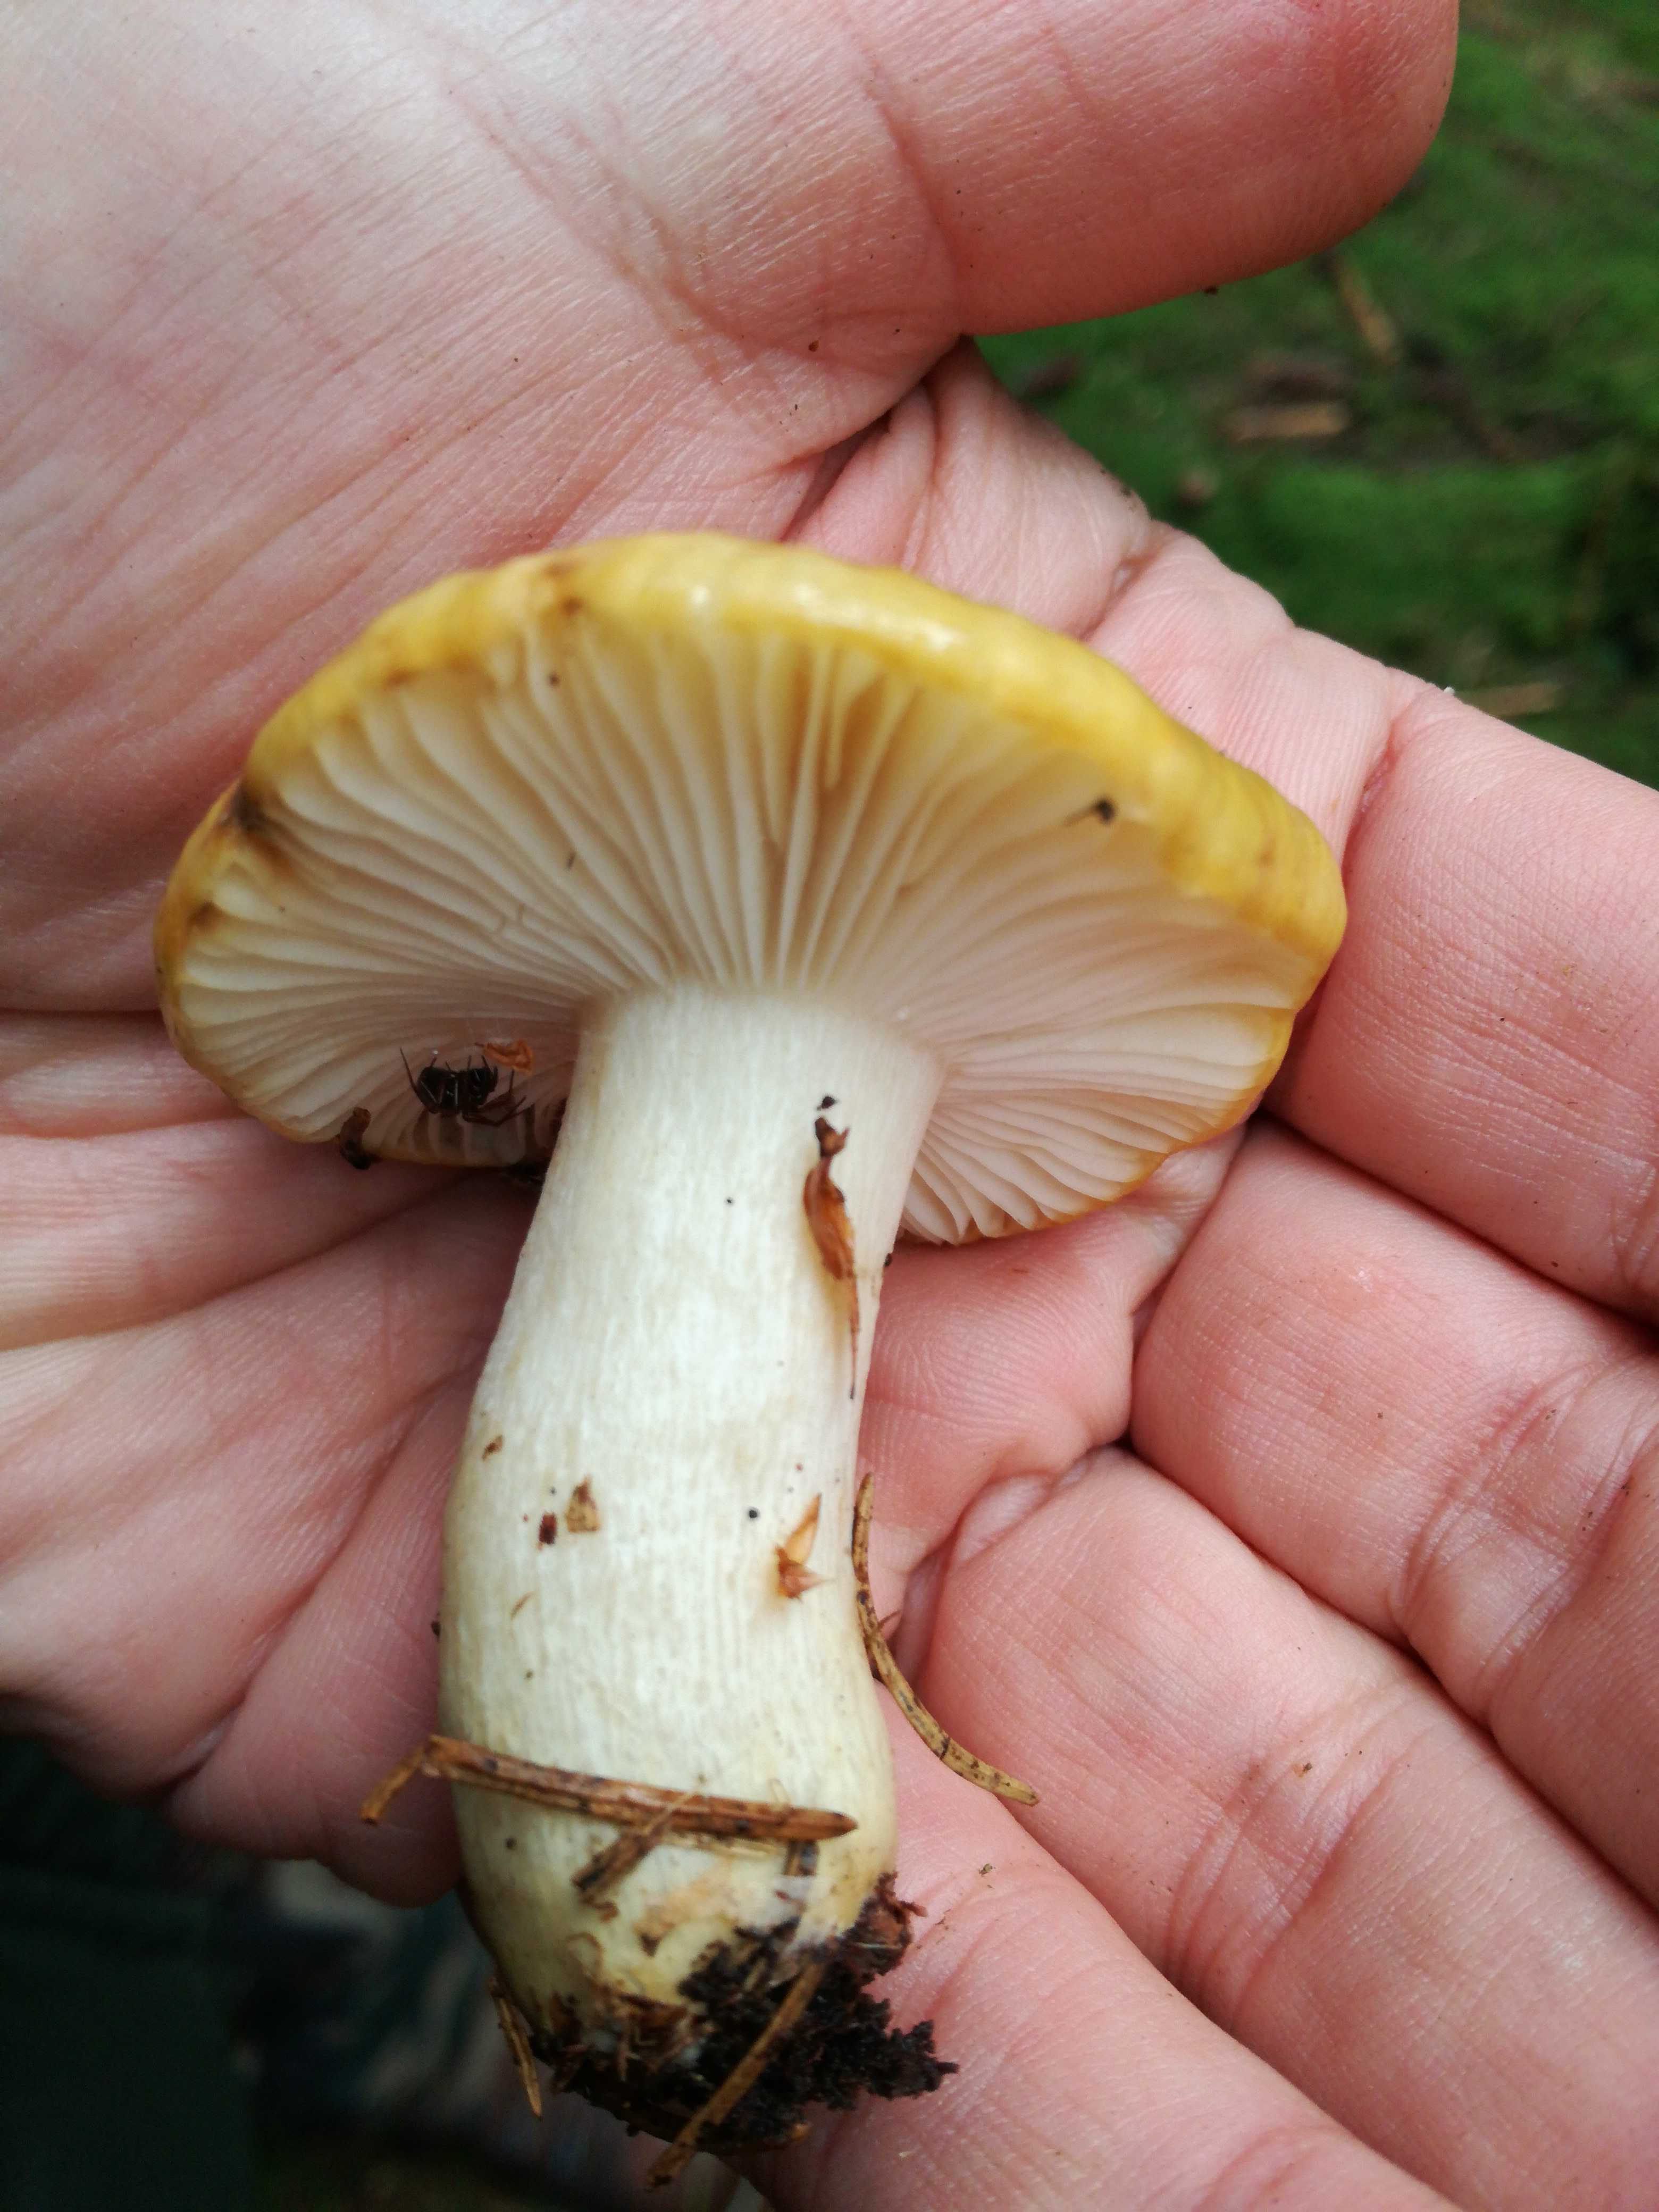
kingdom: Fungi
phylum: Basidiomycota
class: Agaricomycetes
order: Russulales
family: Russulaceae
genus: Russula
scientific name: Russula ochroleuca
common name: okkergul skørhat
